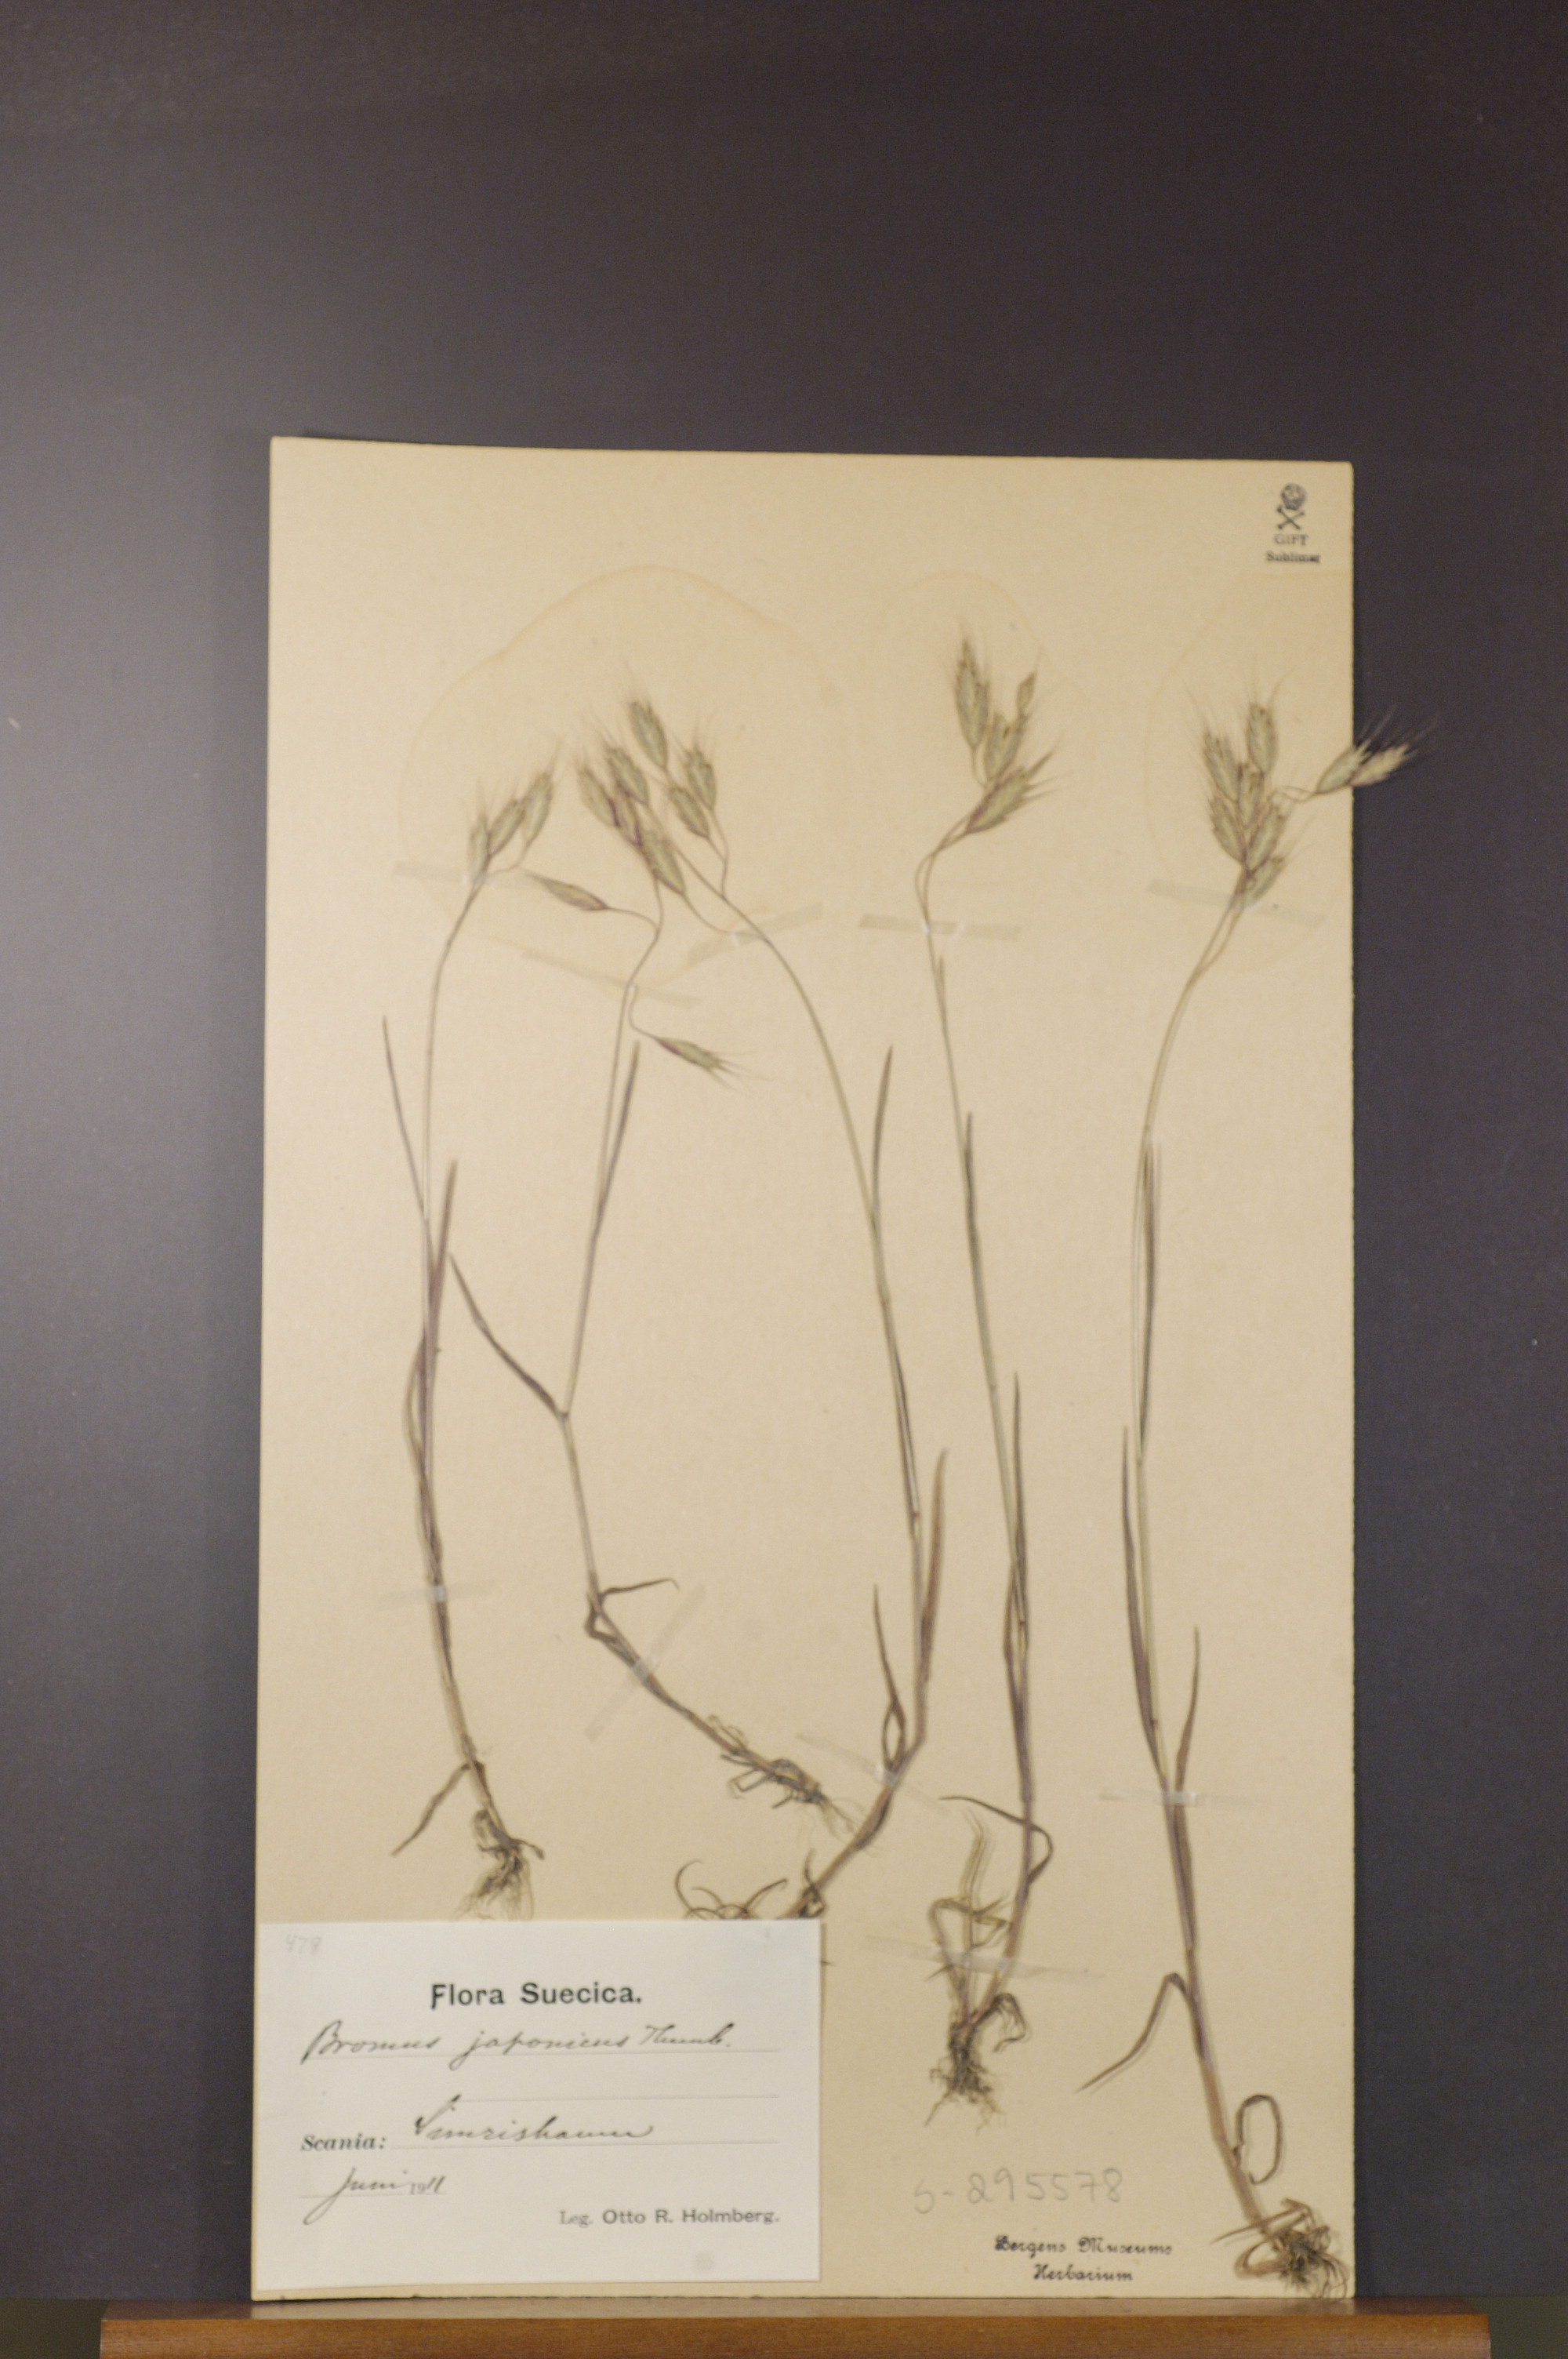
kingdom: Plantae
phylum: Tracheophyta
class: Liliopsida
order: Poales
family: Poaceae
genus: Bromus
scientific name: Bromus japonicus
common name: Japanese brome
